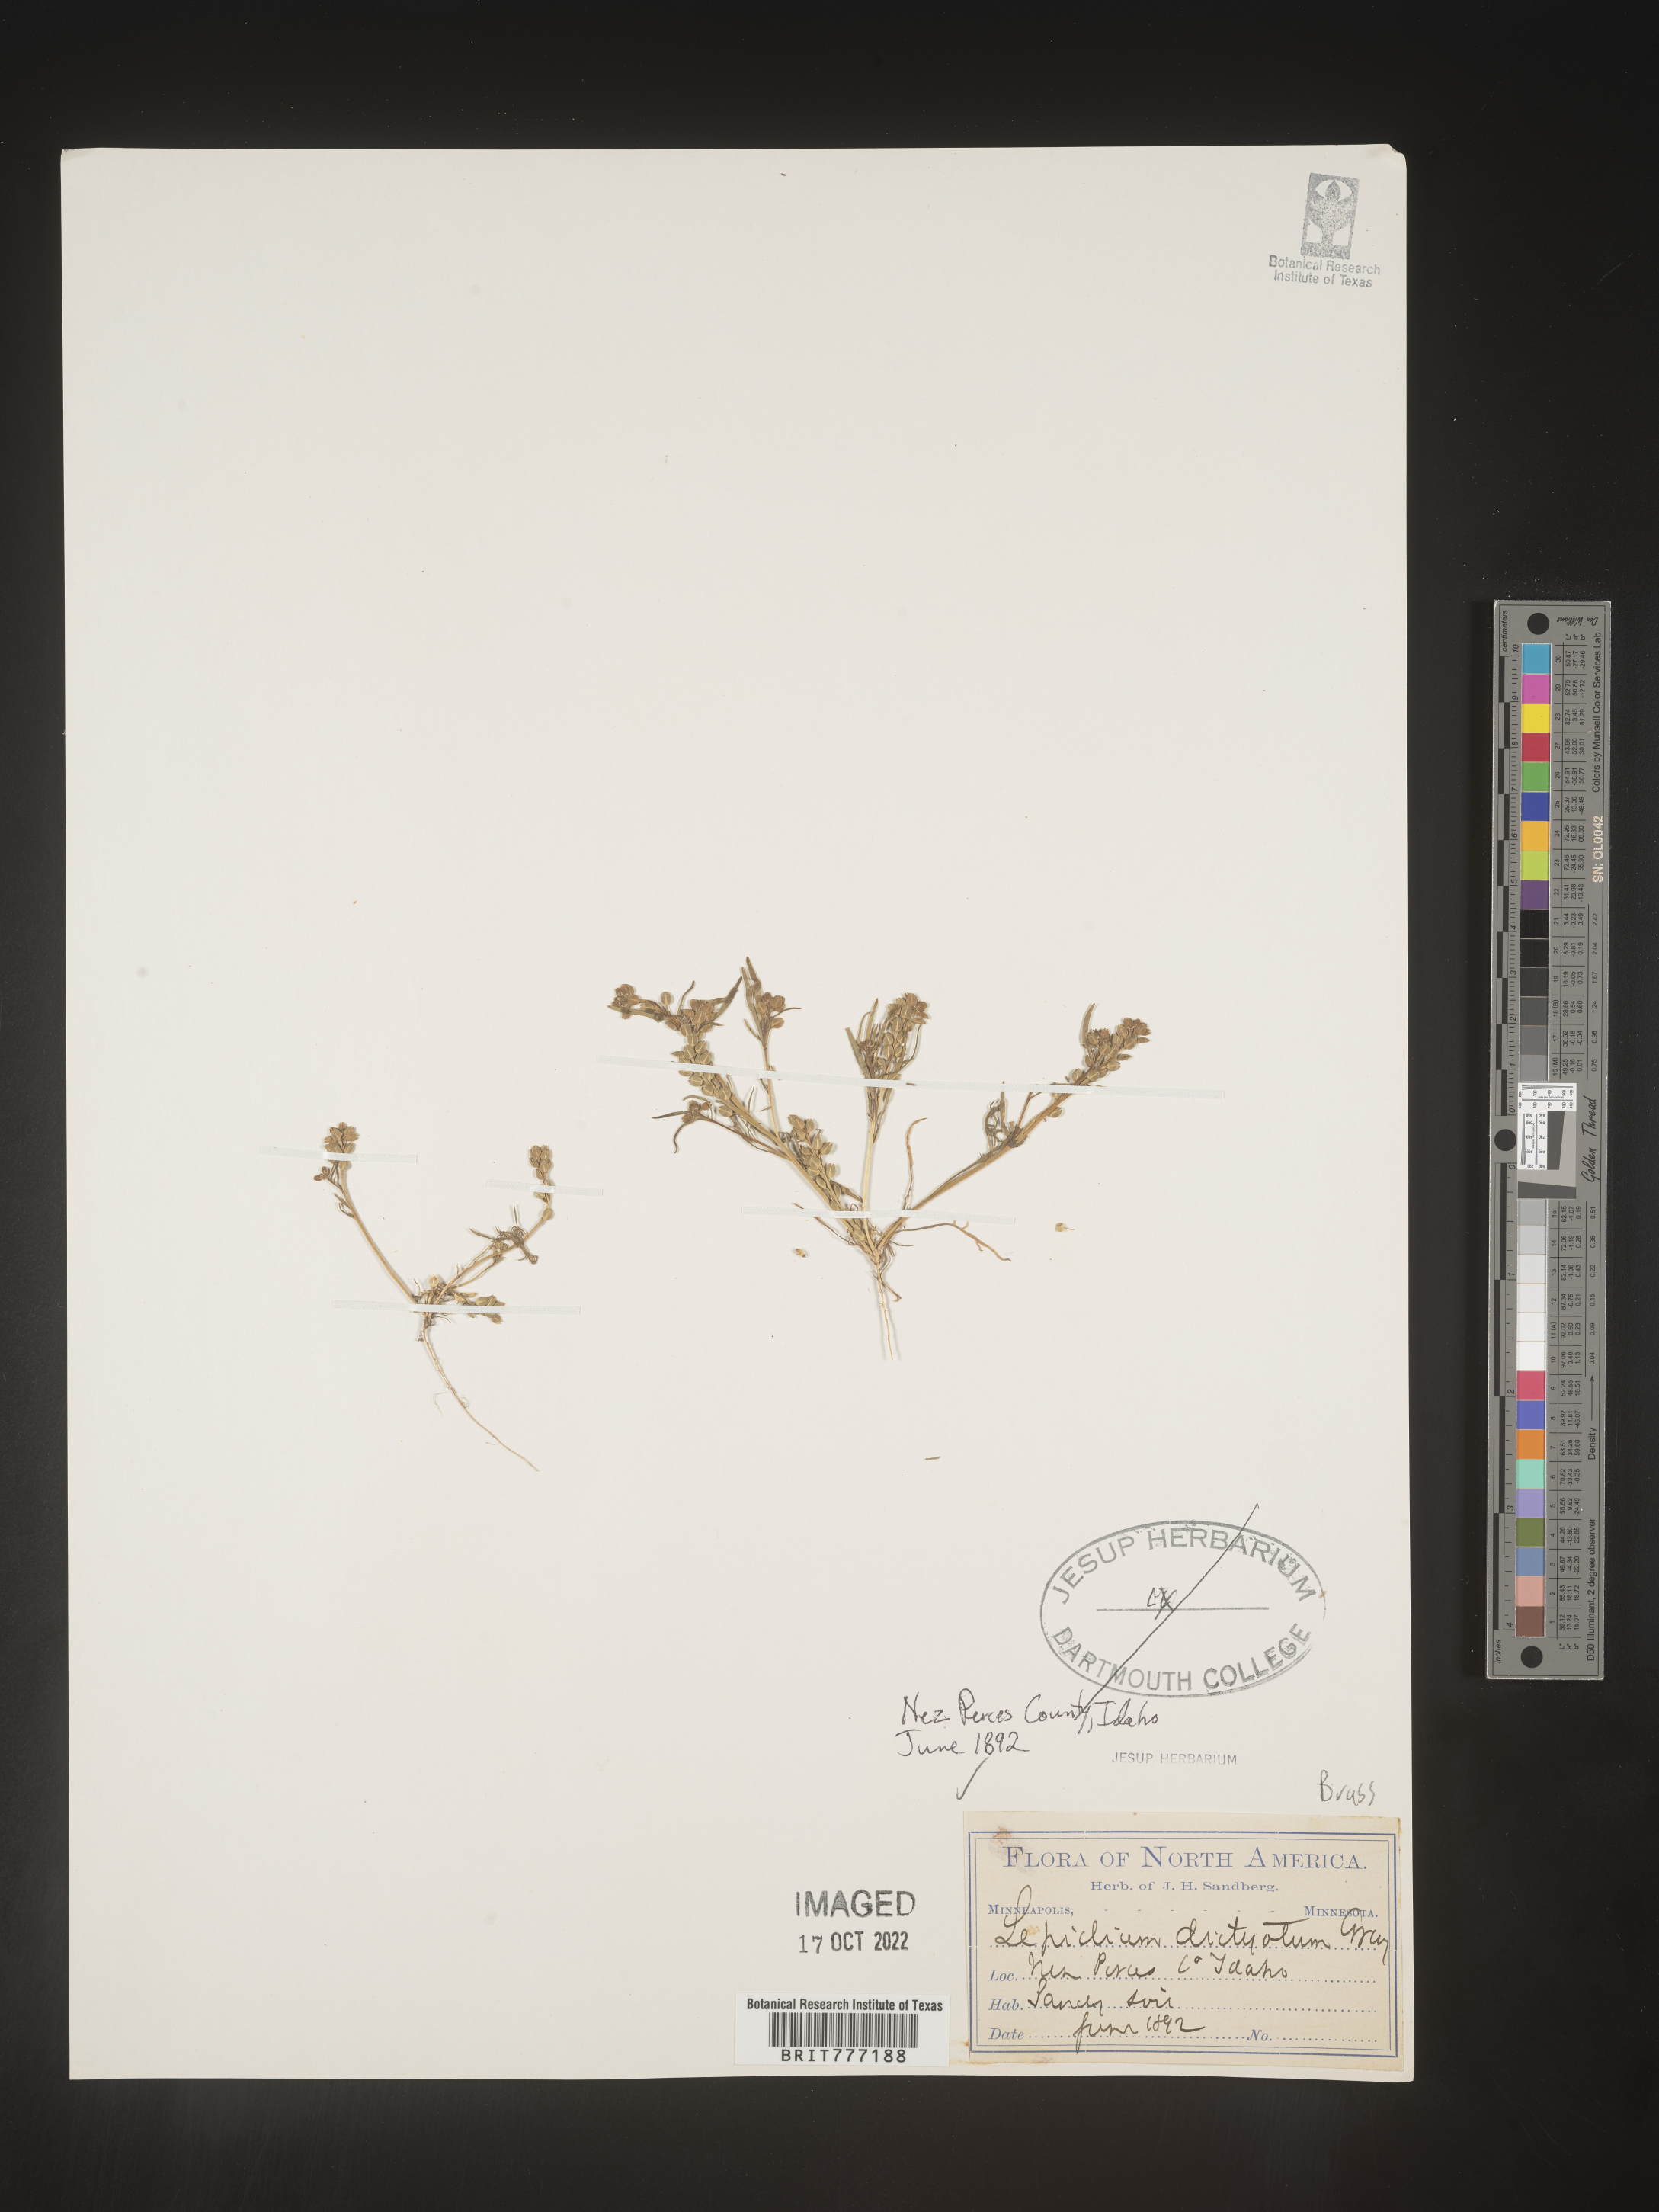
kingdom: Plantae
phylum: Tracheophyta
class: Magnoliopsida
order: Brassicales
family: Brassicaceae
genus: Lepidium
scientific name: Lepidium
